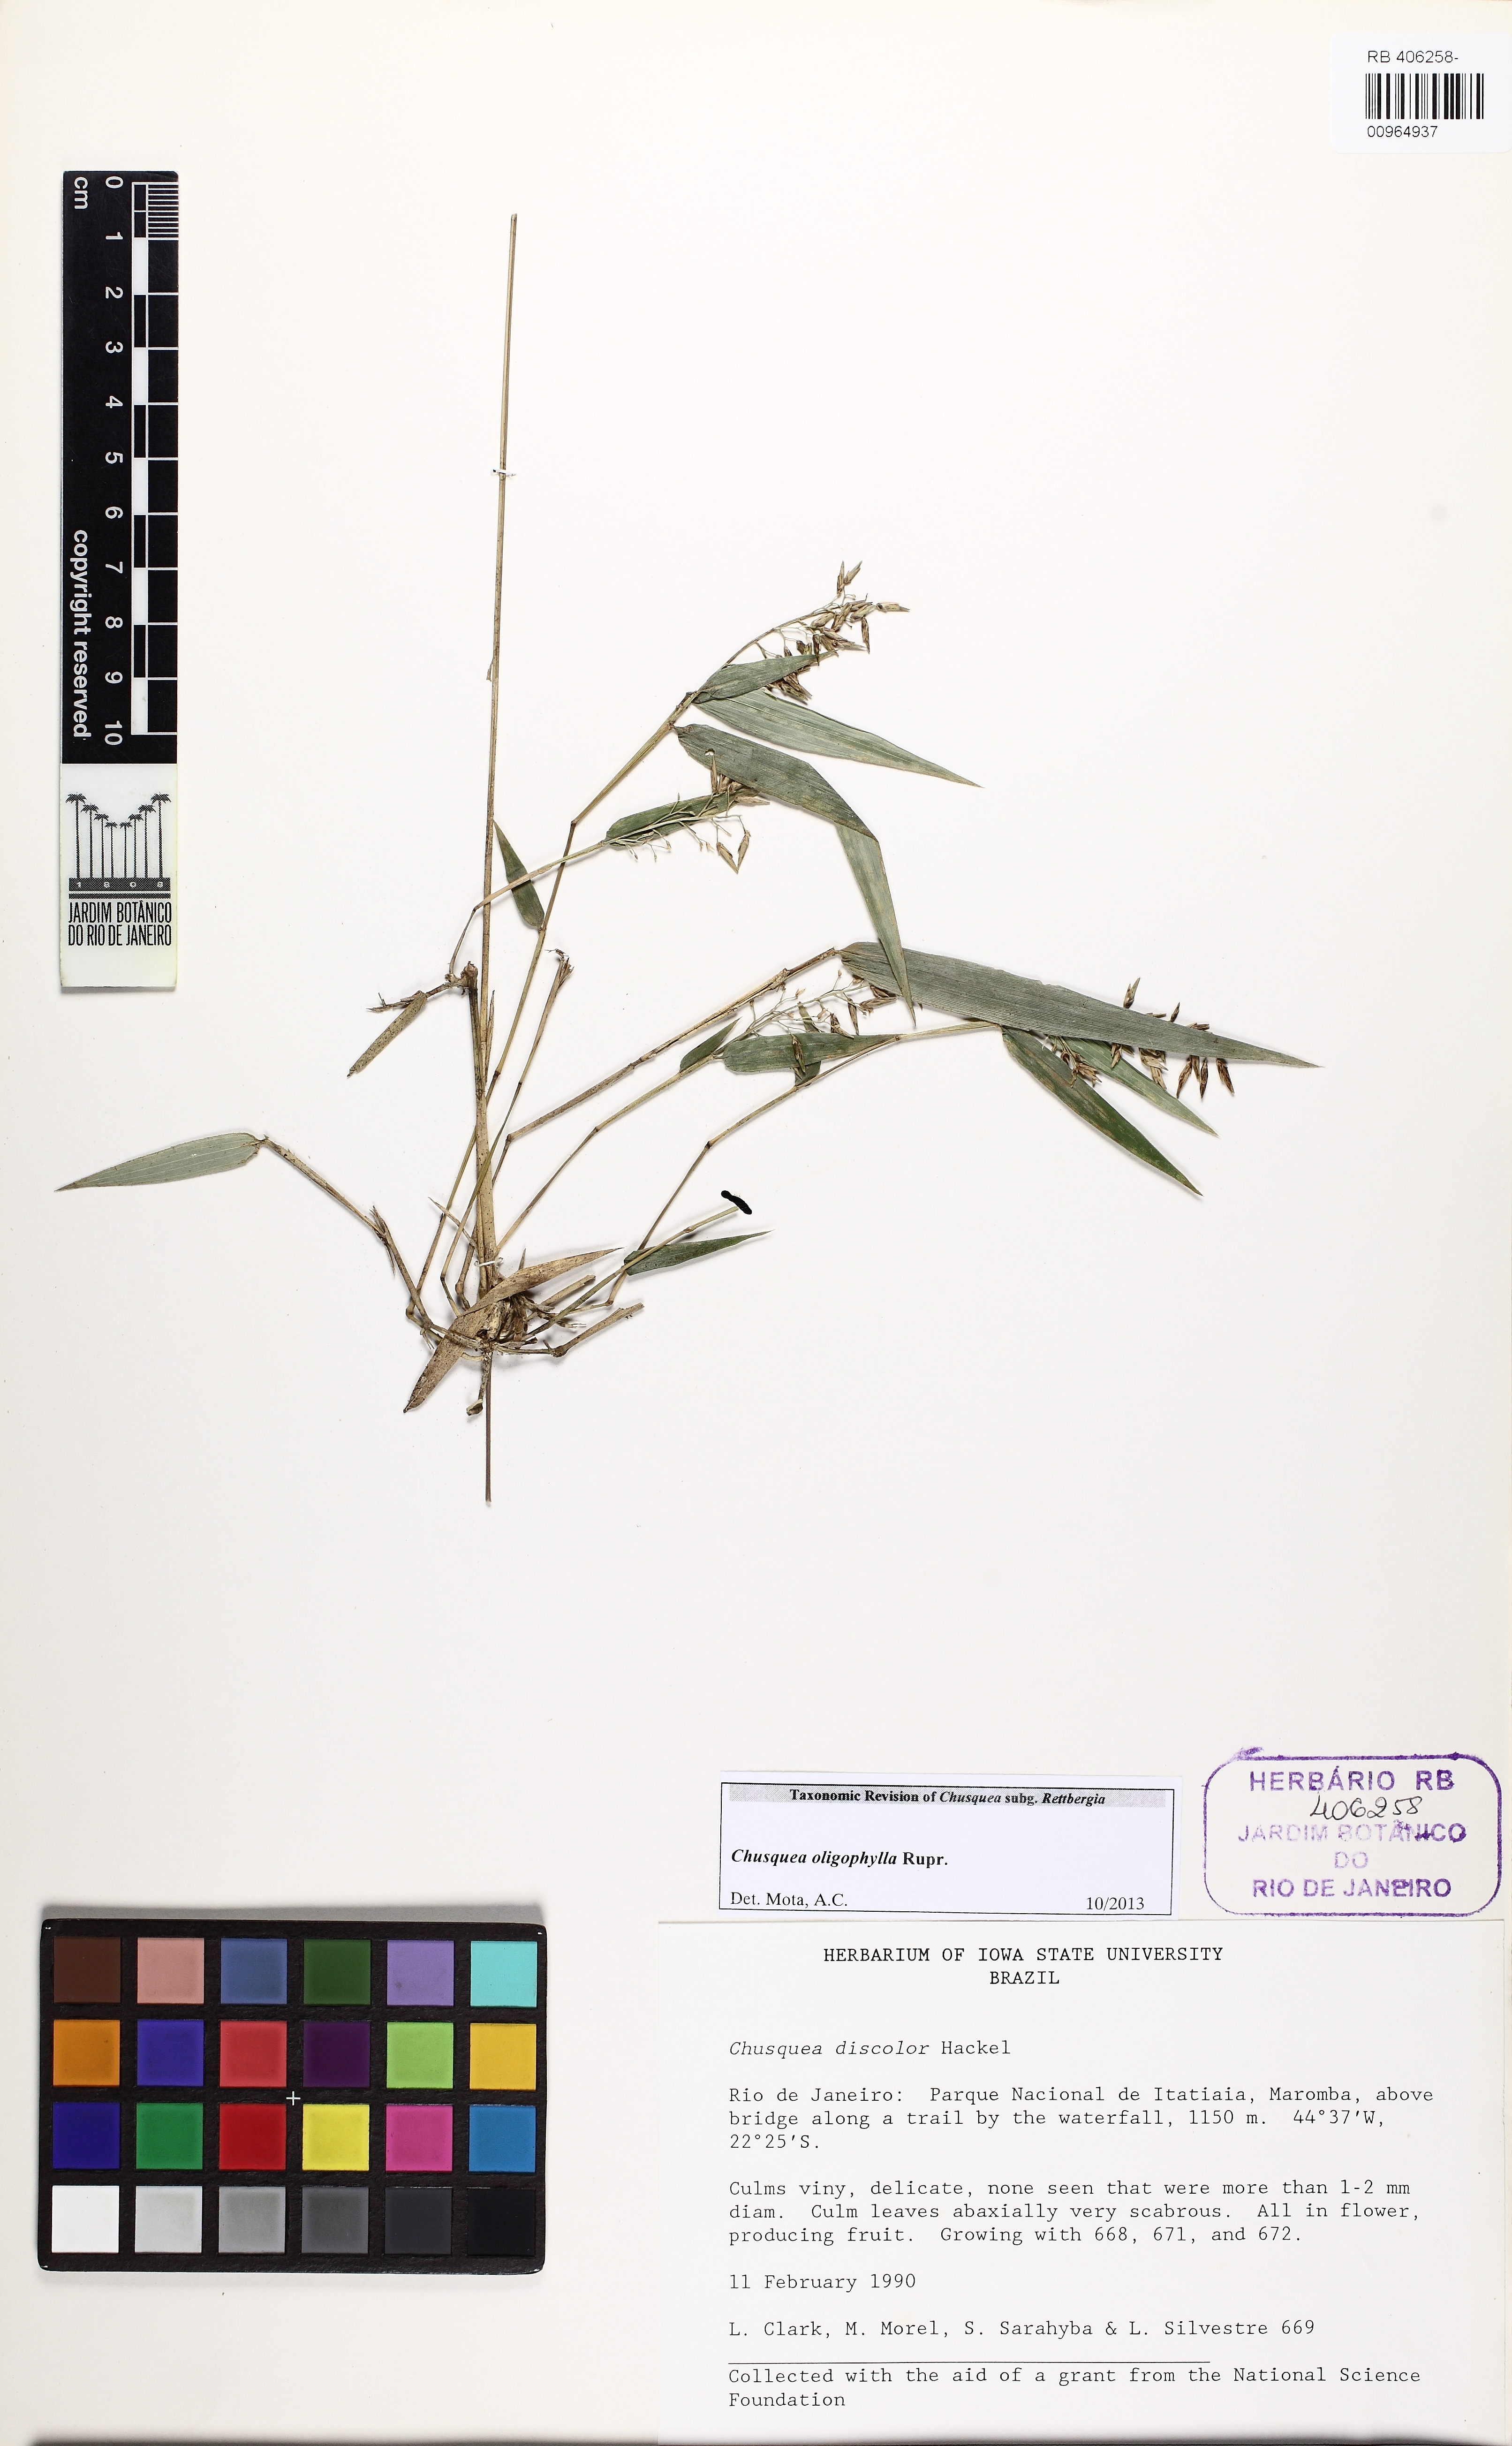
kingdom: Plantae
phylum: Tracheophyta
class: Liliopsida
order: Poales
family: Poaceae
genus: Chusquea
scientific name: Chusquea oligophylla
